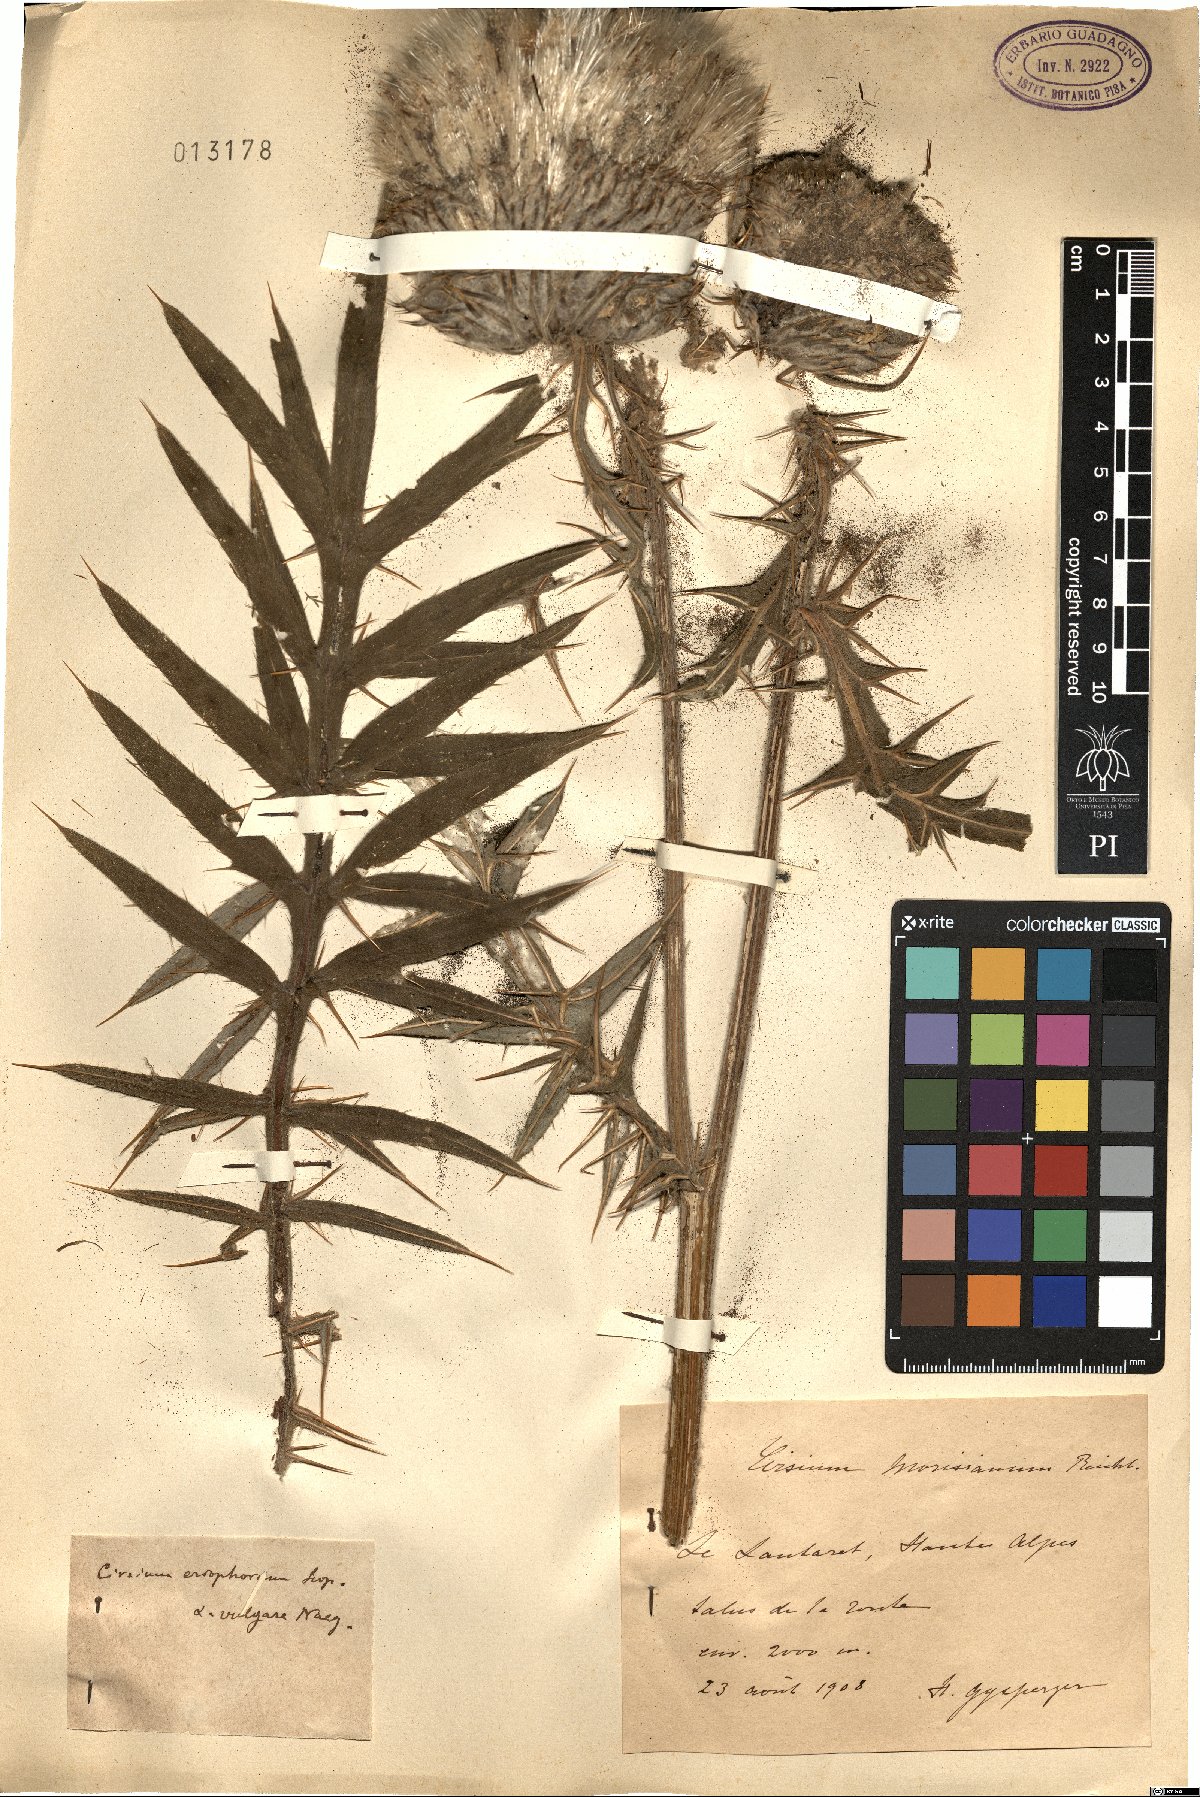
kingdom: Plantae
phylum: Tracheophyta
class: Magnoliopsida
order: Asterales
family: Asteraceae
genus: Lophiolepis
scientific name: Lophiolepis morisiana
